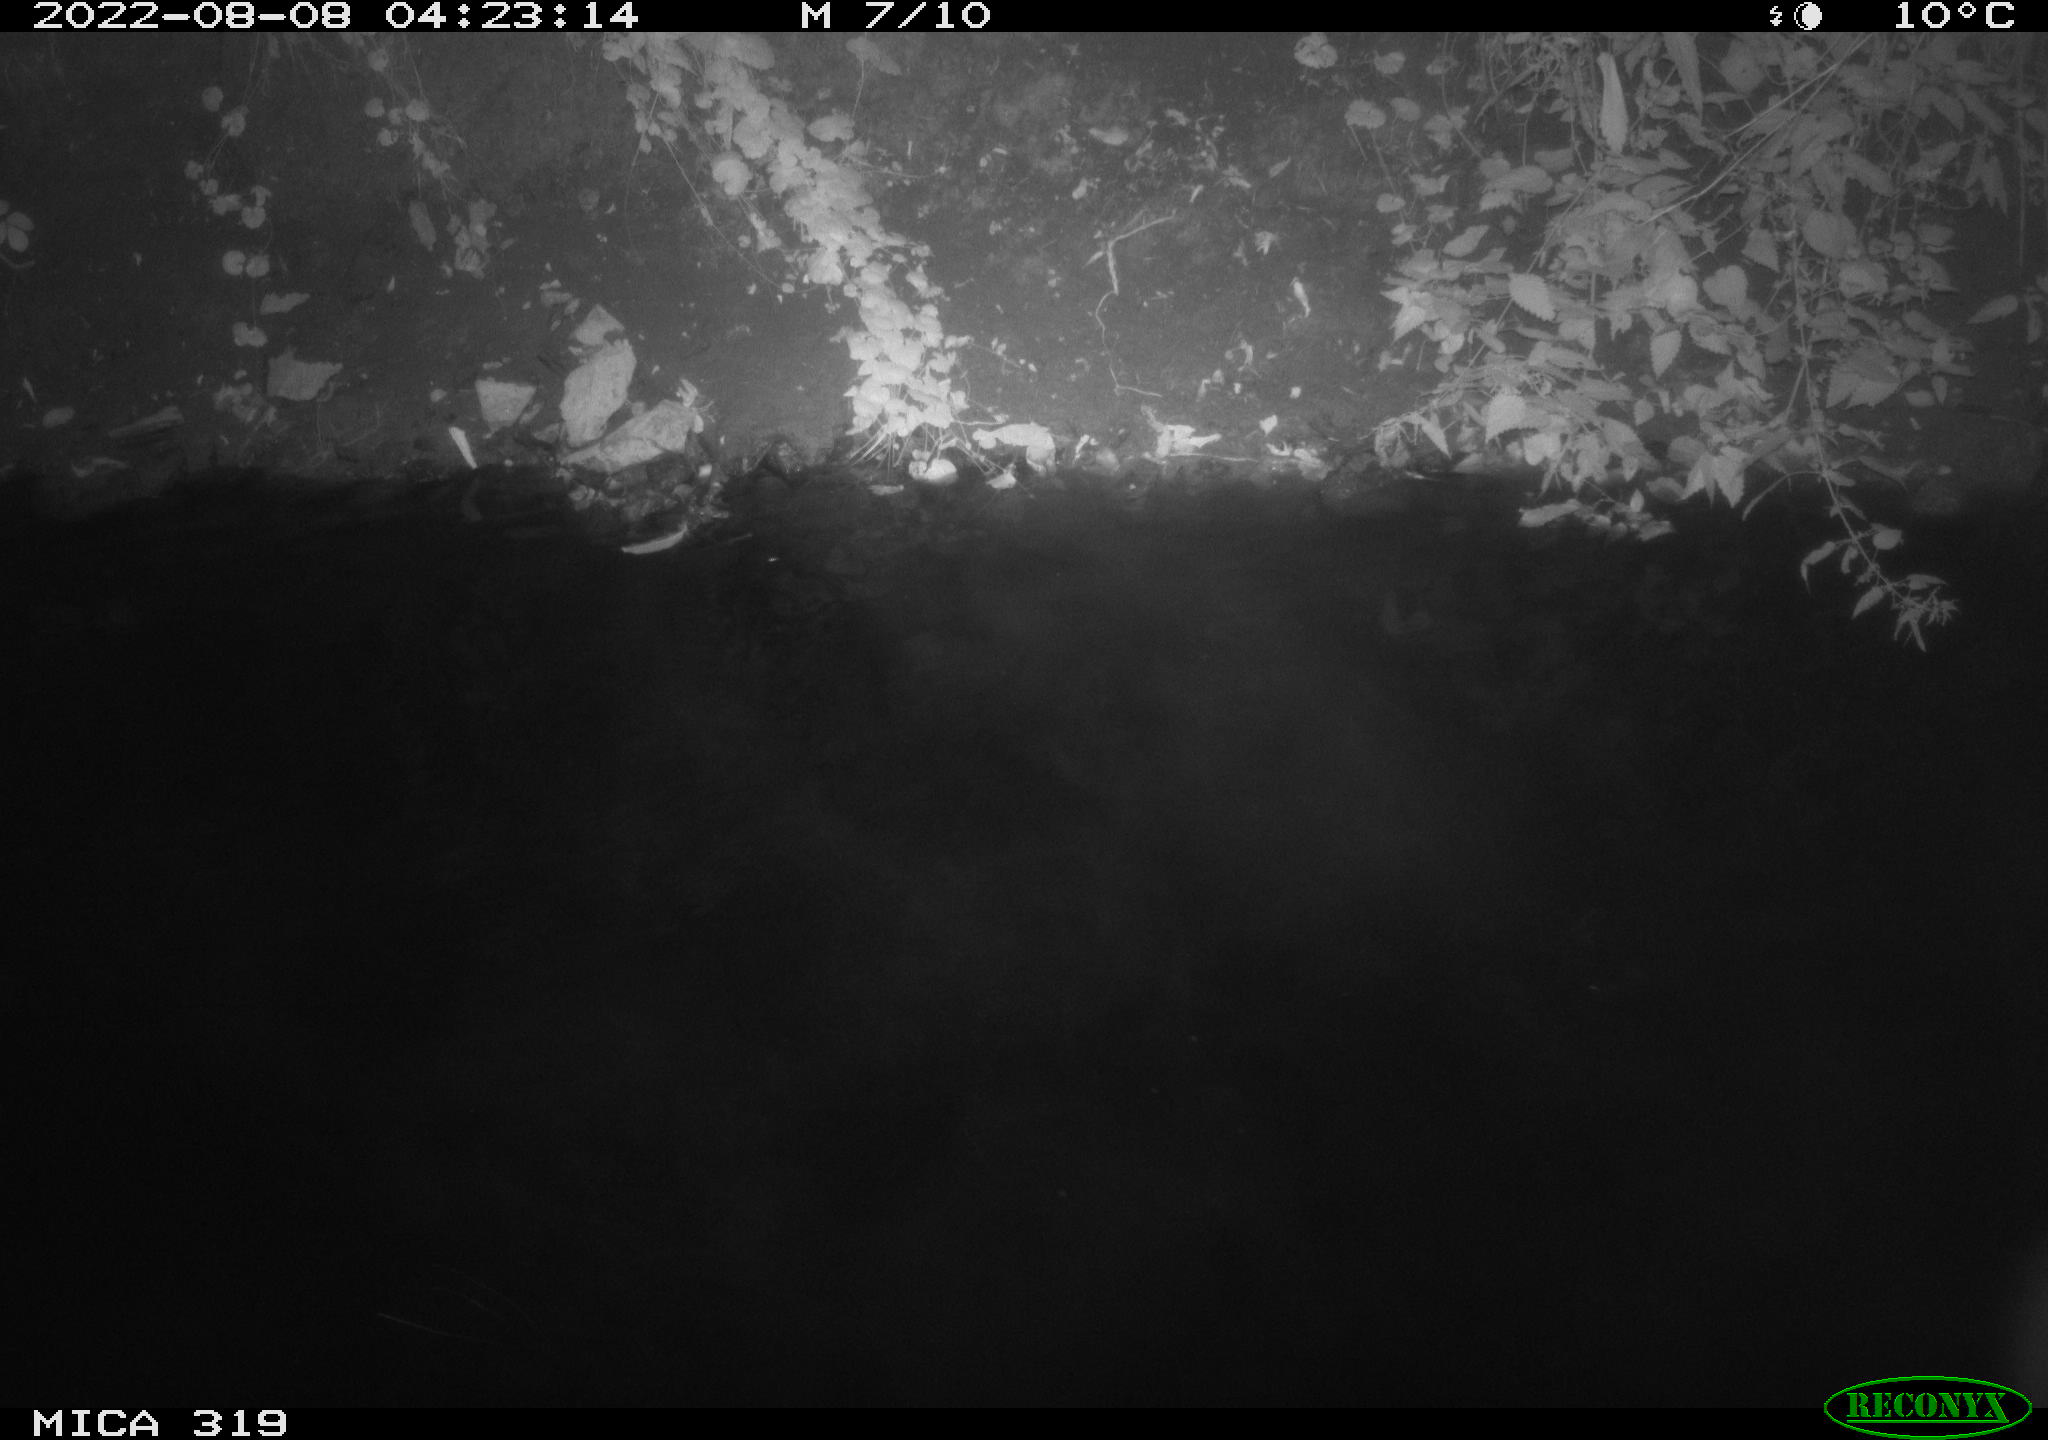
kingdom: Animalia
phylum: Chordata
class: Aves
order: Anseriformes
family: Anatidae
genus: Anas
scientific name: Anas
